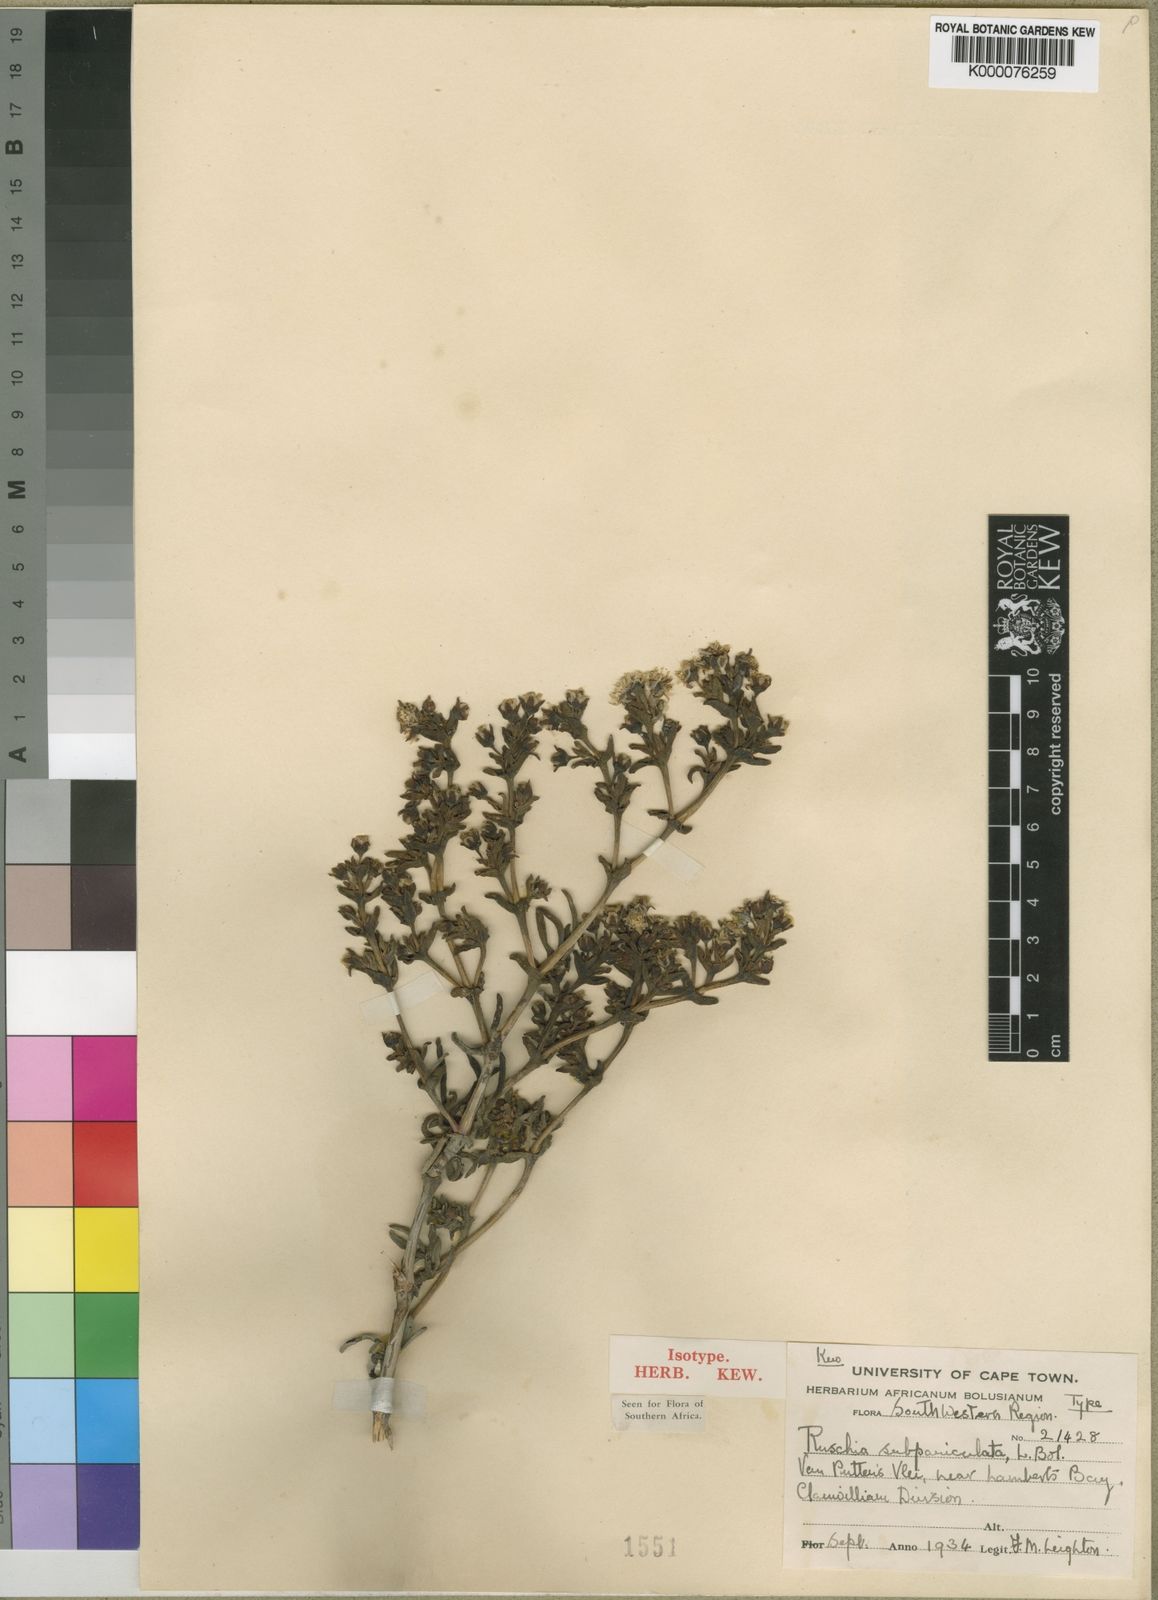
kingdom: Plantae
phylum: Tracheophyta
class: Magnoliopsida
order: Caryophyllales
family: Aizoaceae
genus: Ruschia
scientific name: Ruschia subpaniculata
